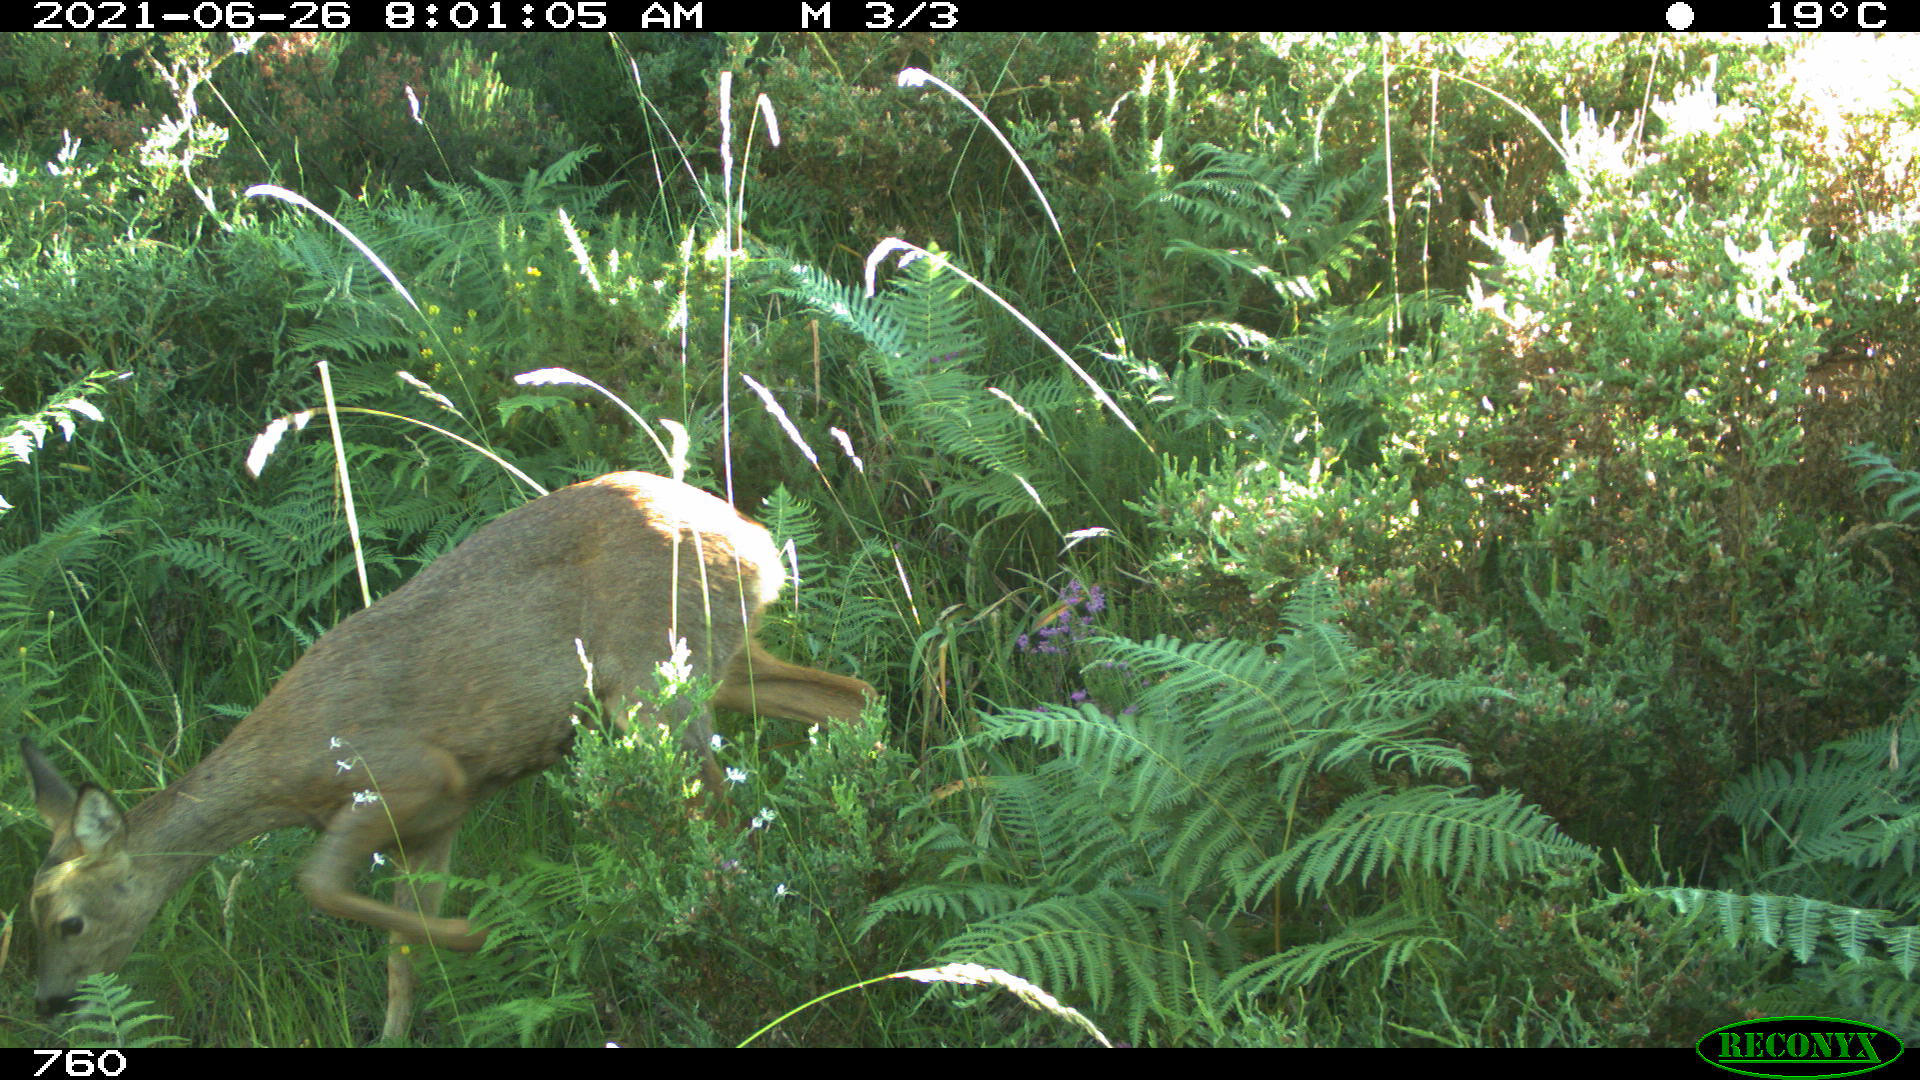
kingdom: Animalia
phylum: Chordata
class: Mammalia
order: Artiodactyla
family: Cervidae
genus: Capreolus
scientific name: Capreolus capreolus
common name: Western roe deer
